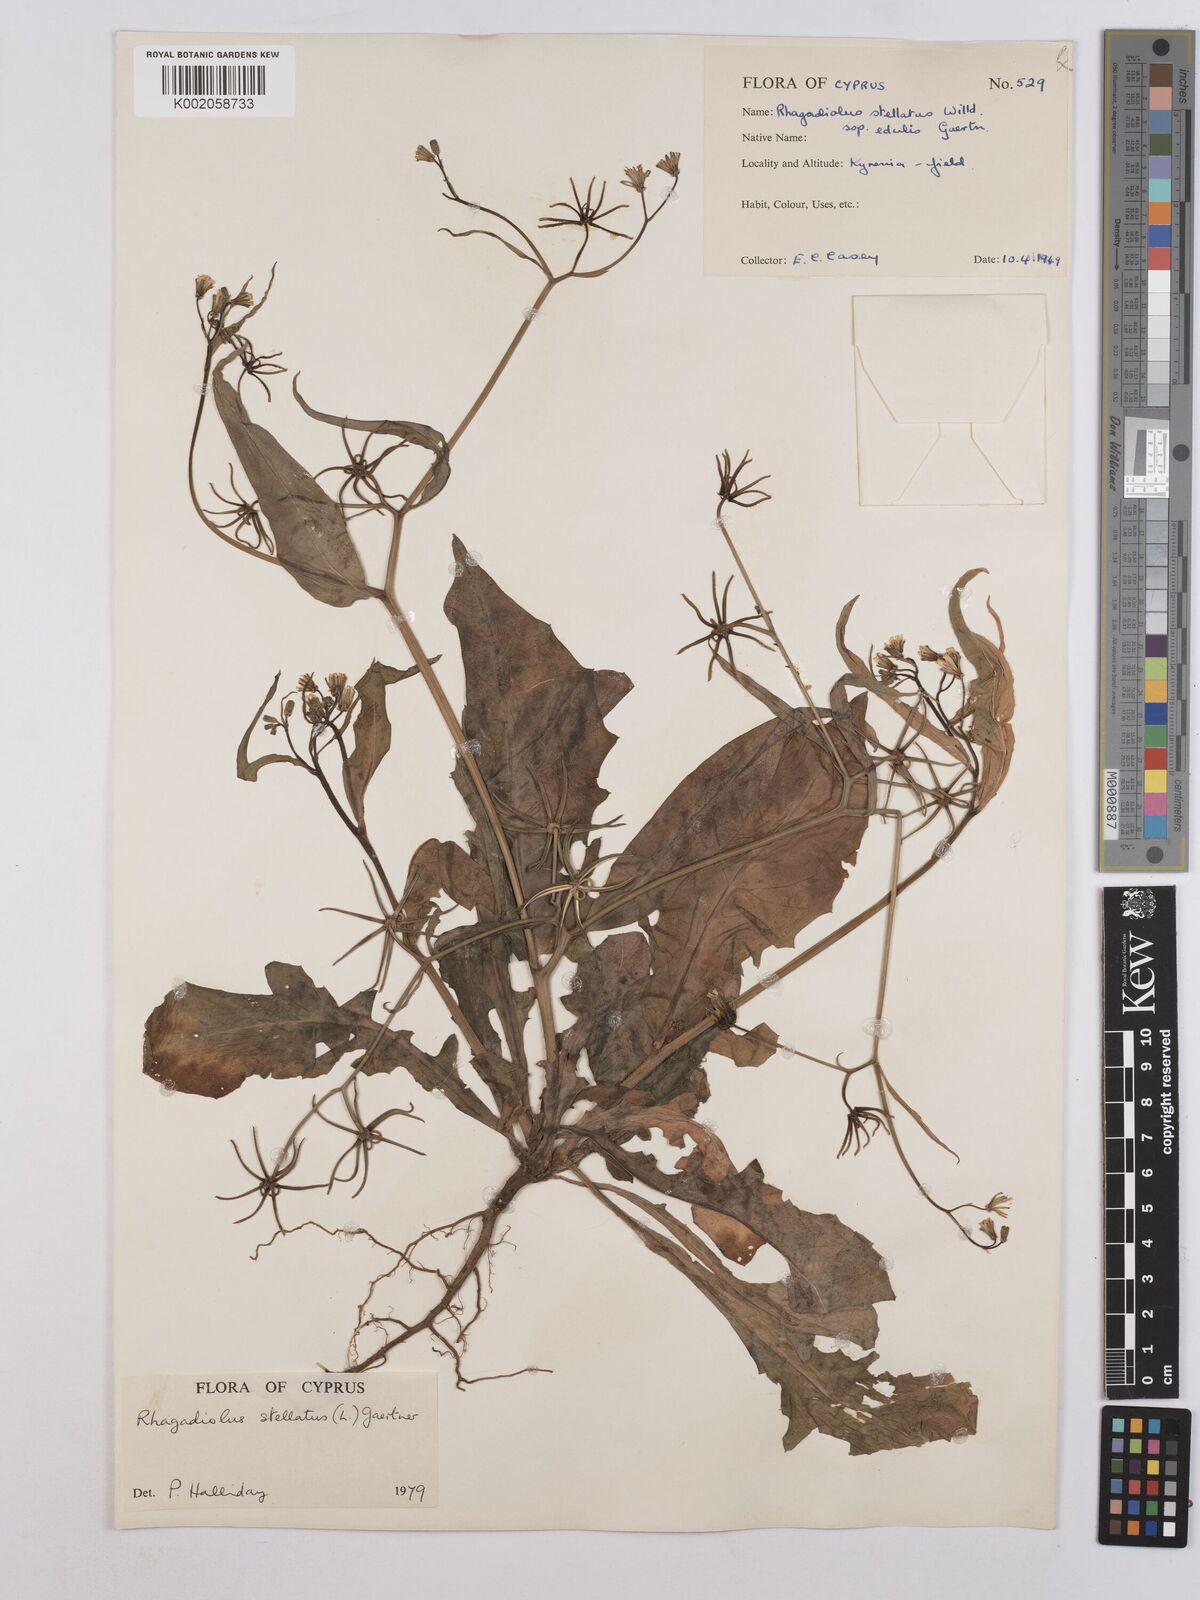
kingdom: Plantae
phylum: Tracheophyta
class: Magnoliopsida
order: Asterales
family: Asteraceae
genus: Rhagadiolus
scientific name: Rhagadiolus stellatus
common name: Star hawkbit
